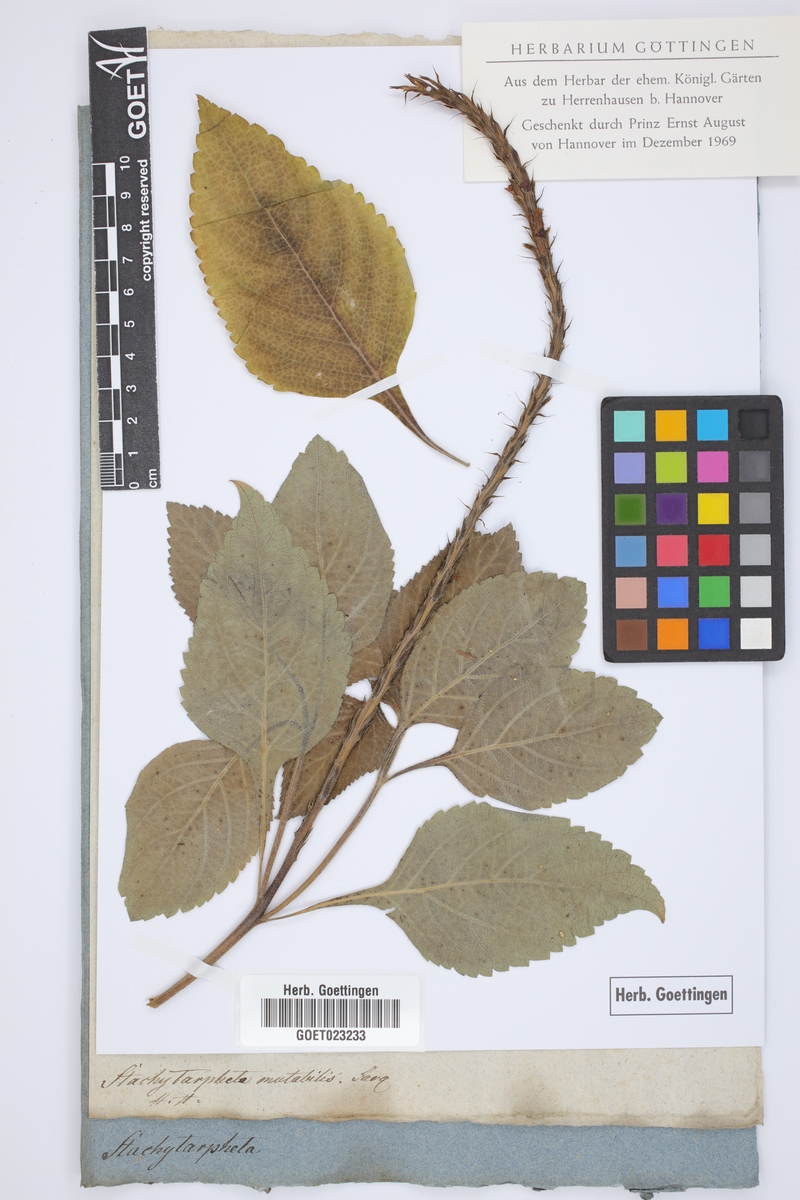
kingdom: Plantae
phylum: Tracheophyta
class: Magnoliopsida
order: Lamiales
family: Verbenaceae
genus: Stachytarpheta
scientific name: Stachytarpheta mutabilis
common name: Changeable velvetberry
